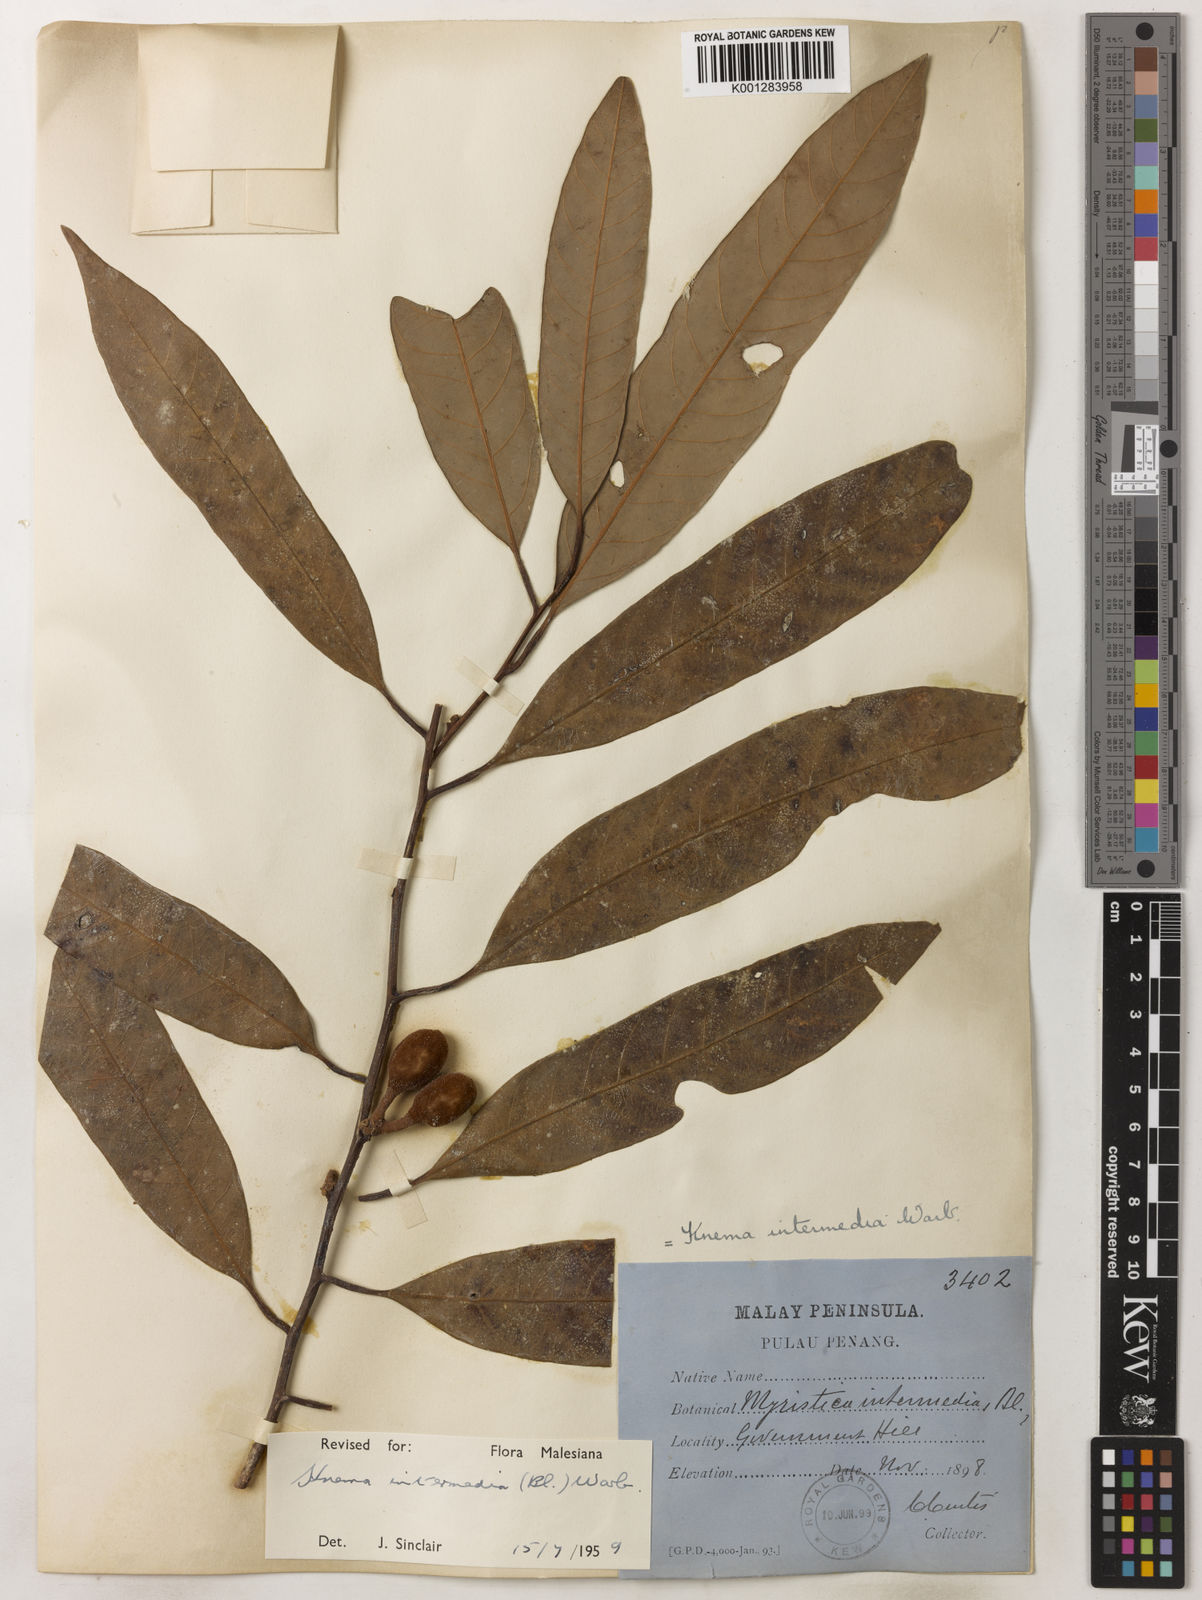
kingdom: Plantae
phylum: Tracheophyta
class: Magnoliopsida
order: Magnoliales
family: Myristicaceae
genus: Knema
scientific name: Knema intermedia
